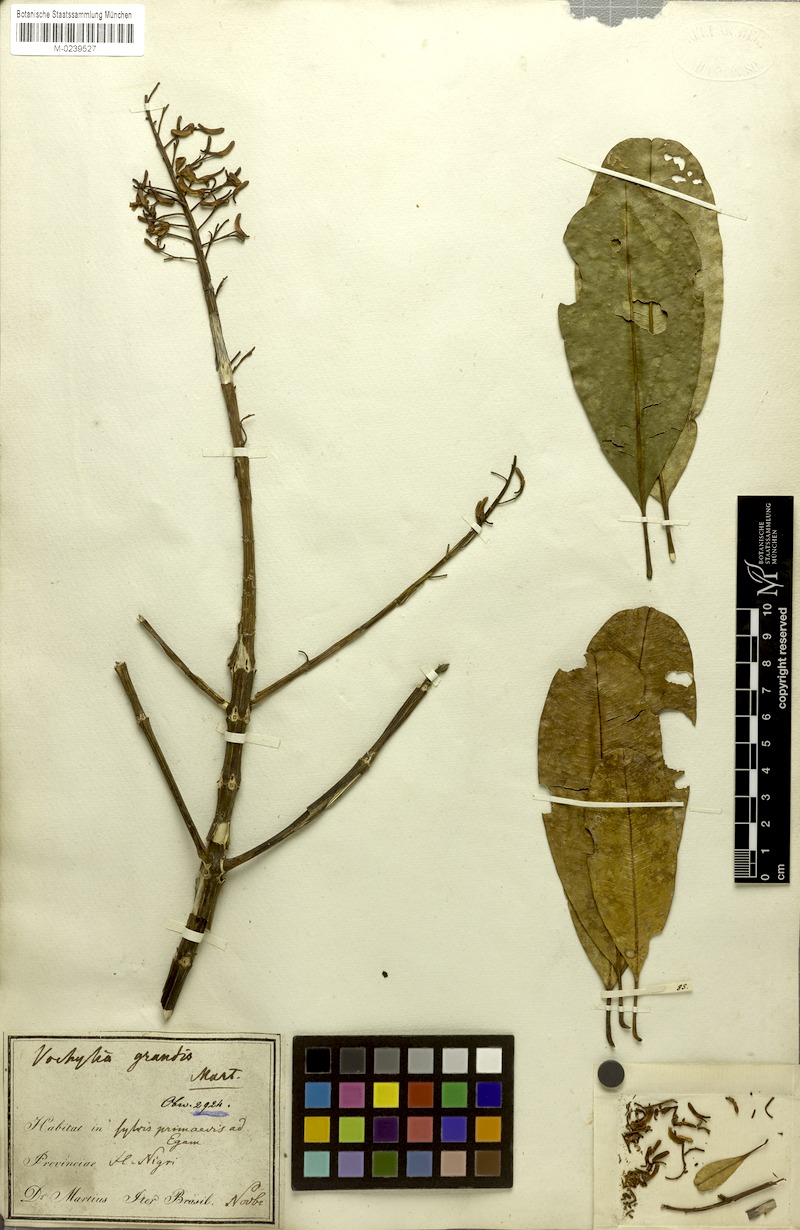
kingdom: Plantae
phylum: Tracheophyta
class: Magnoliopsida
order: Myrtales
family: Vochysiaceae
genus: Vochysia
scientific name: Vochysia grandis
